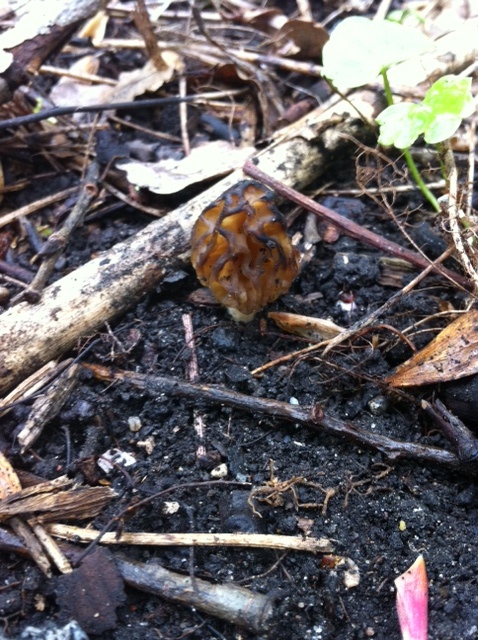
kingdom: Fungi
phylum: Ascomycota
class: Pezizomycetes
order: Pezizales
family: Morchellaceae
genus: Morchella
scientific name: Morchella semilibera
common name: hætte-morkel
